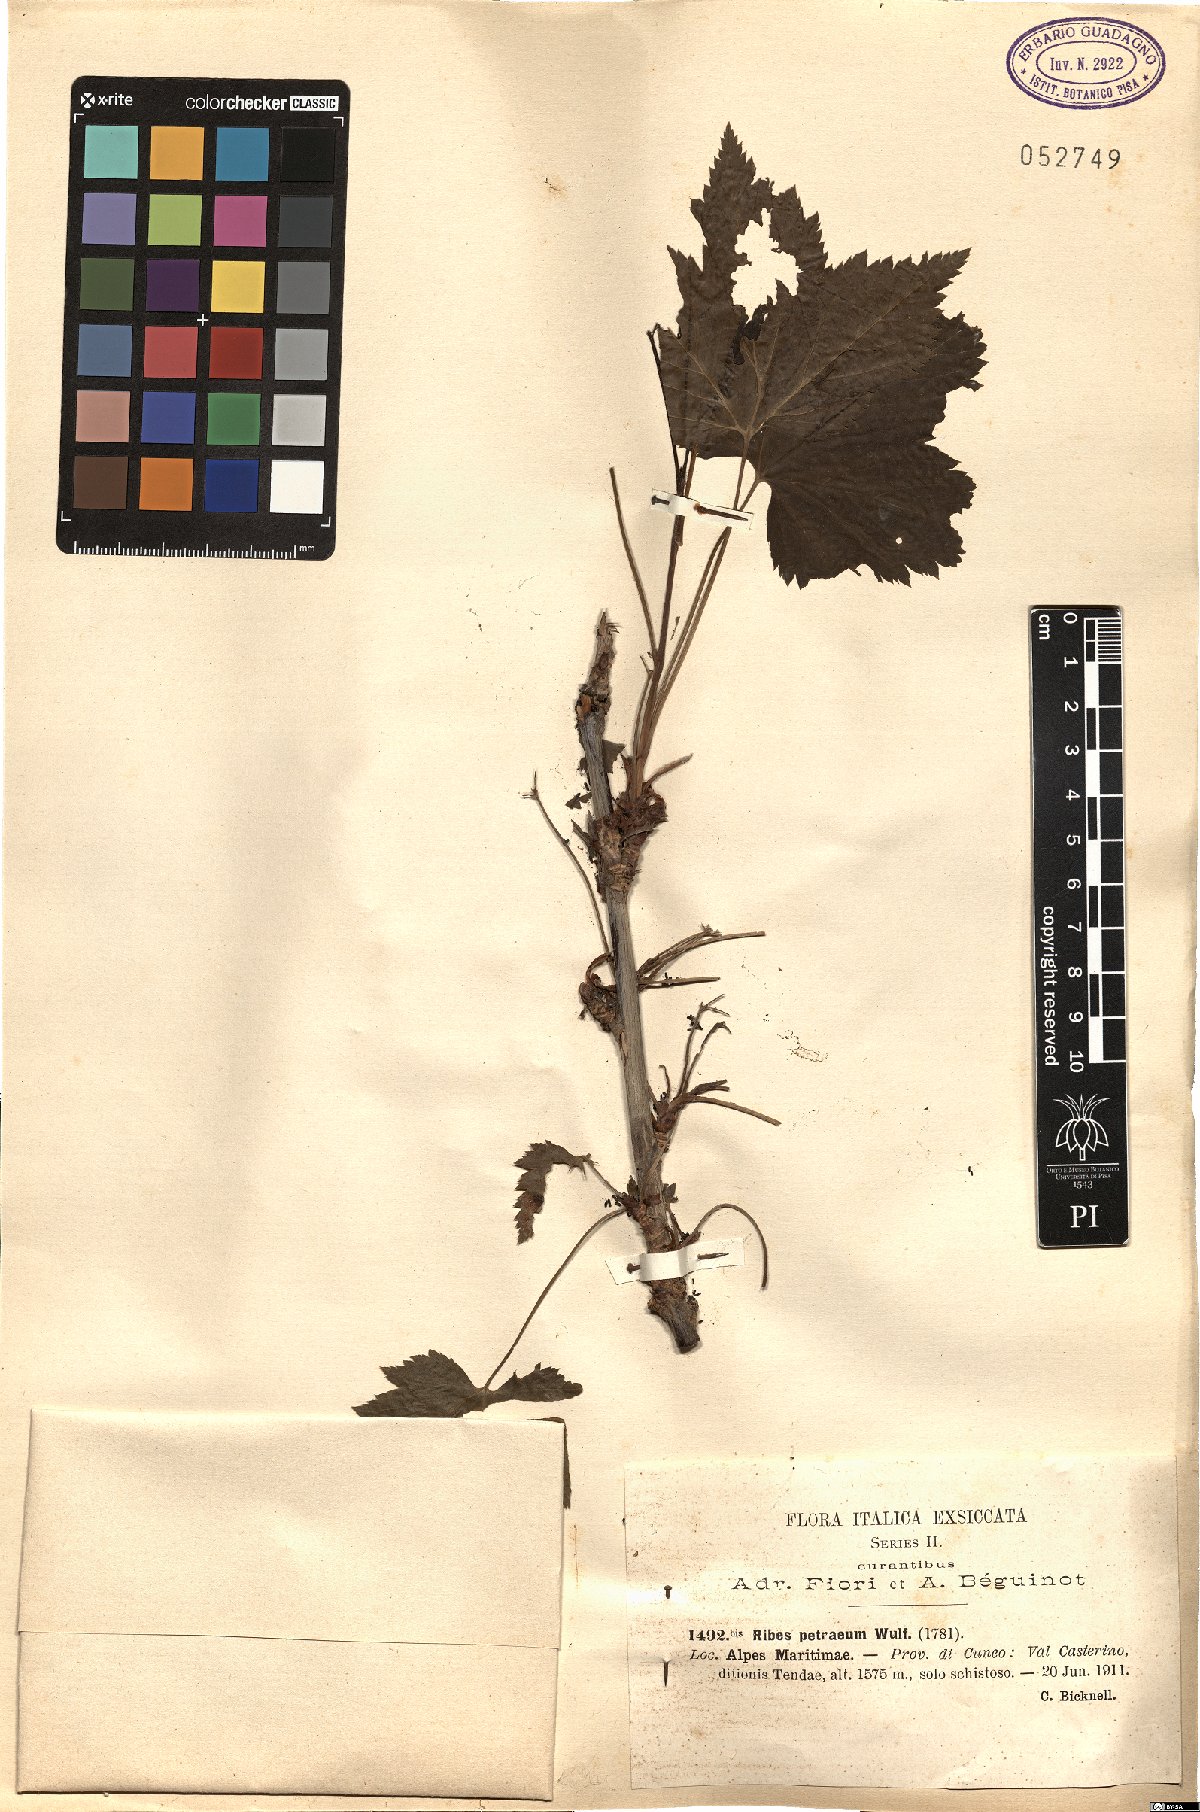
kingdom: Plantae
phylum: Tracheophyta
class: Magnoliopsida
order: Saxifragales
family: Grossulariaceae
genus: Ribes
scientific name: Ribes petraeum
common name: Rock currant
